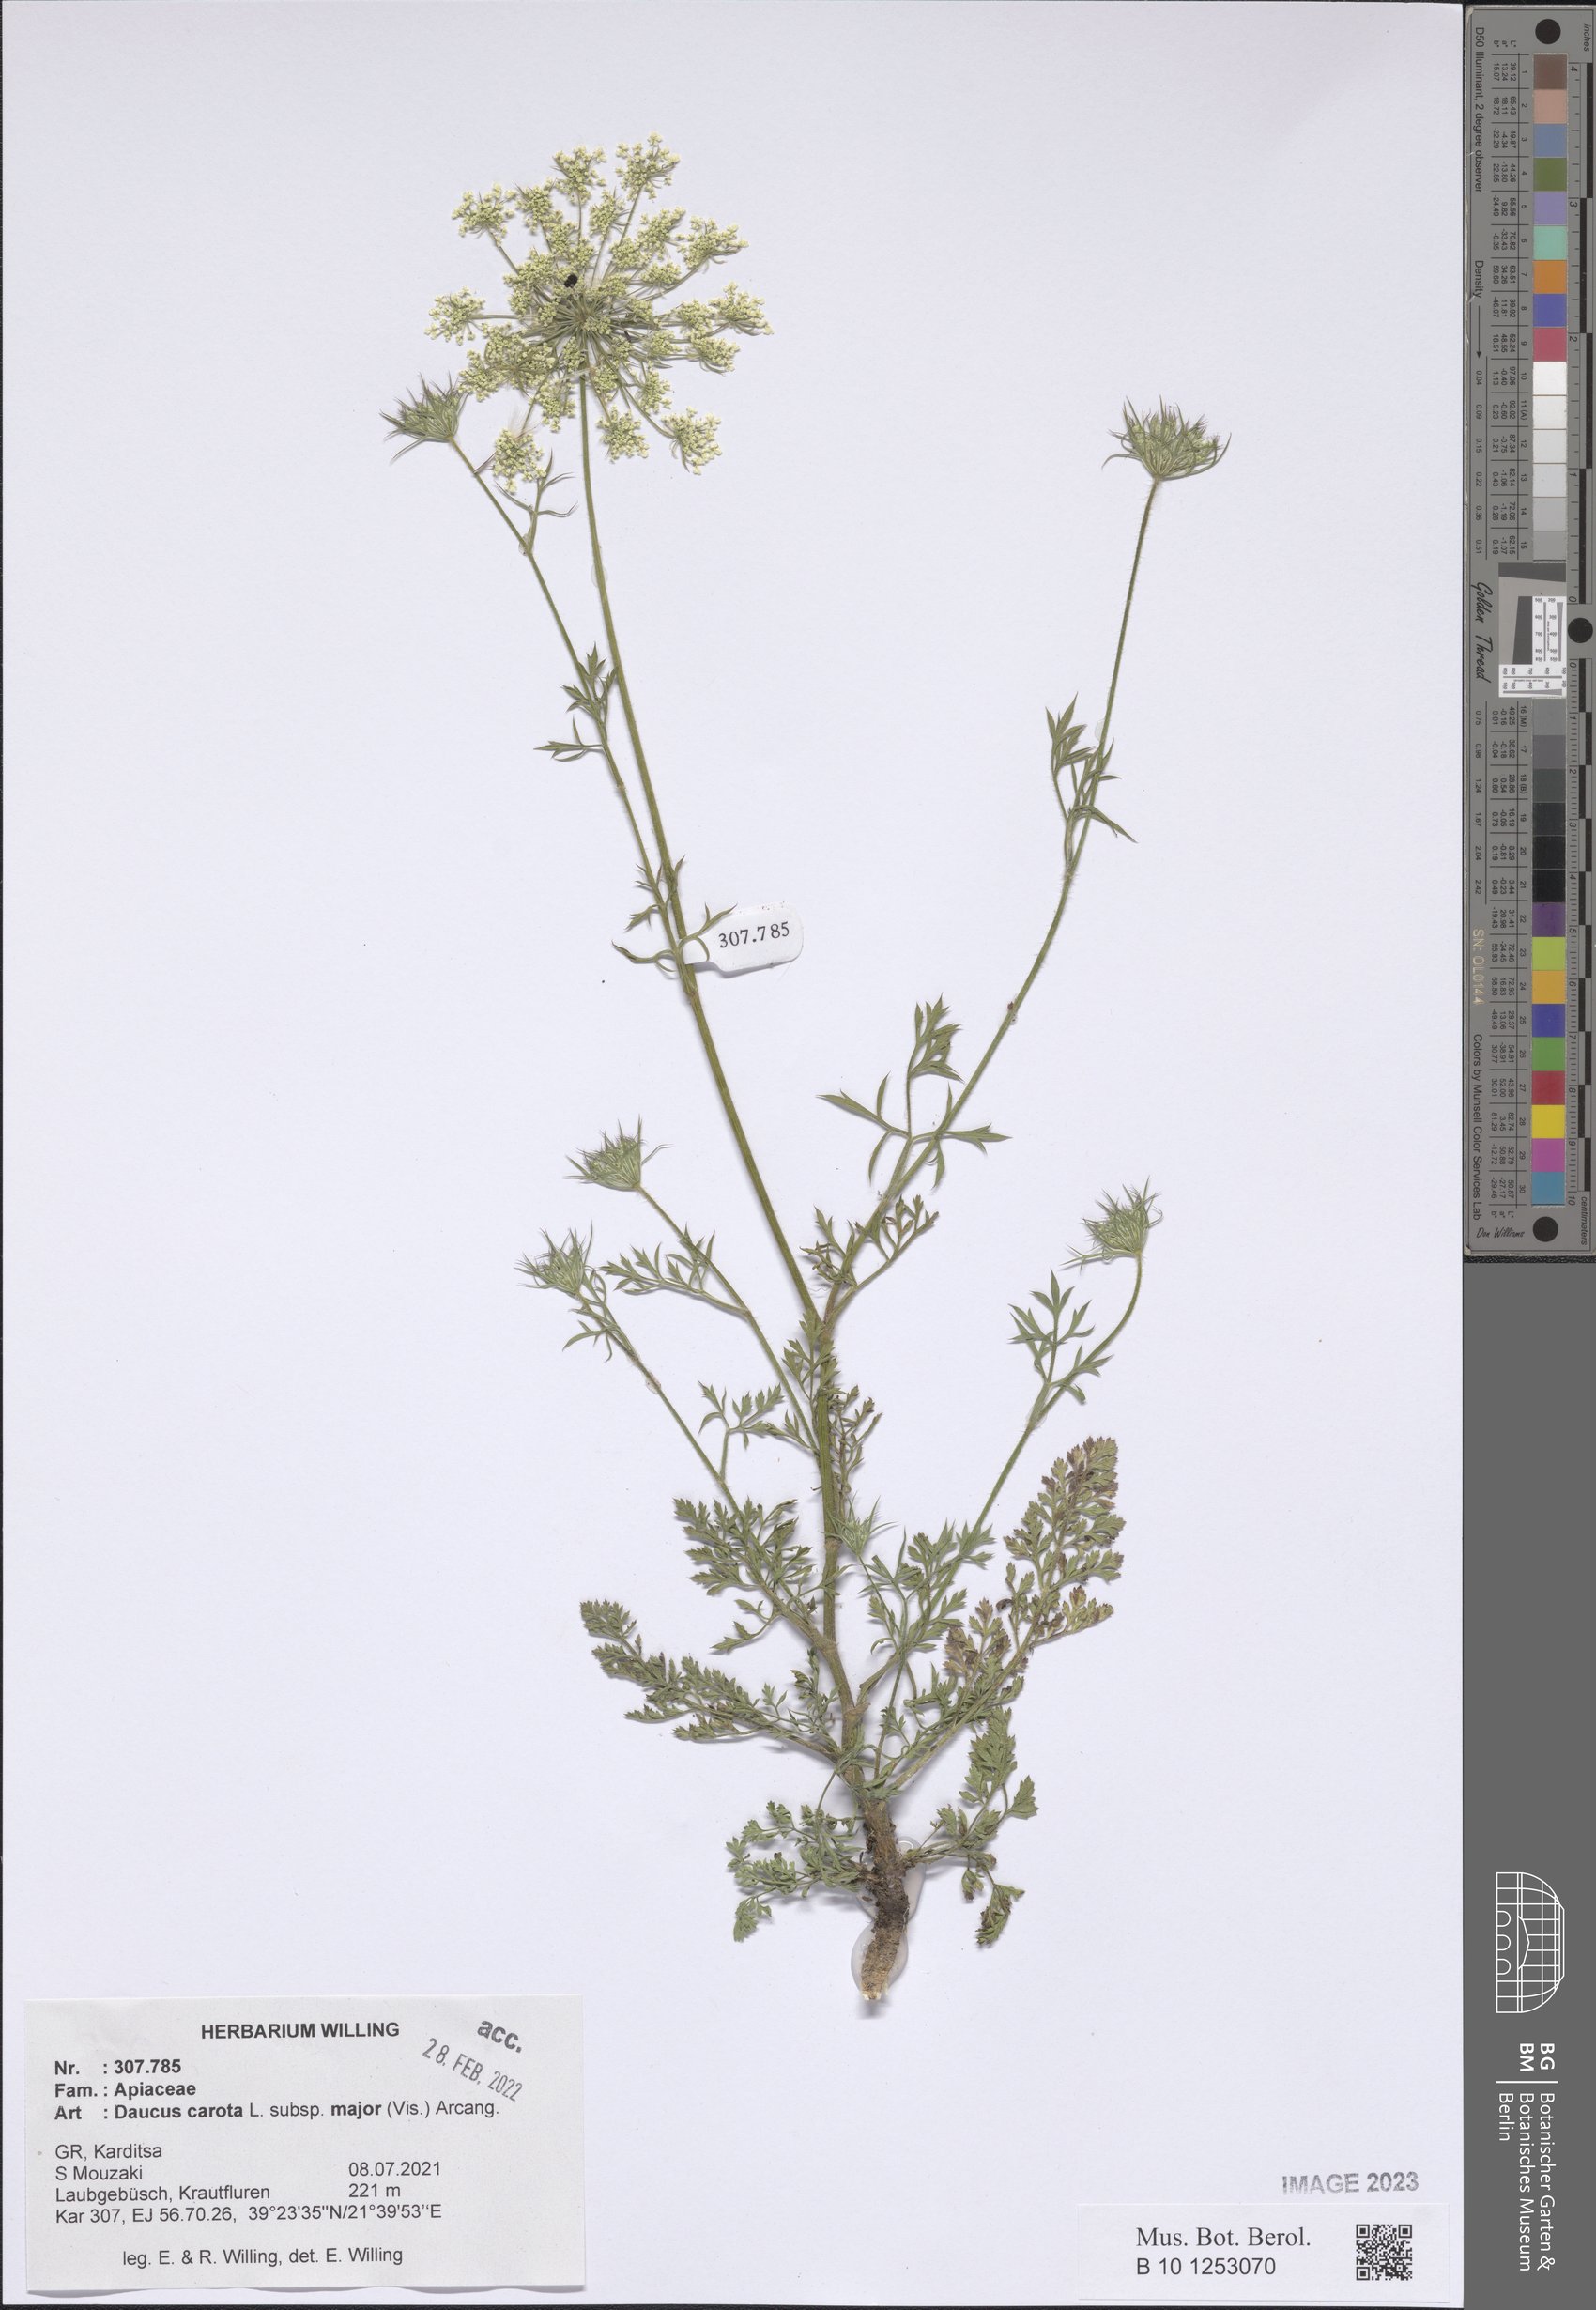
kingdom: Plantae
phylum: Tracheophyta
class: Magnoliopsida
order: Apiales
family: Apiaceae
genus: Daucus
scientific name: Daucus carota
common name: Wild carrot
